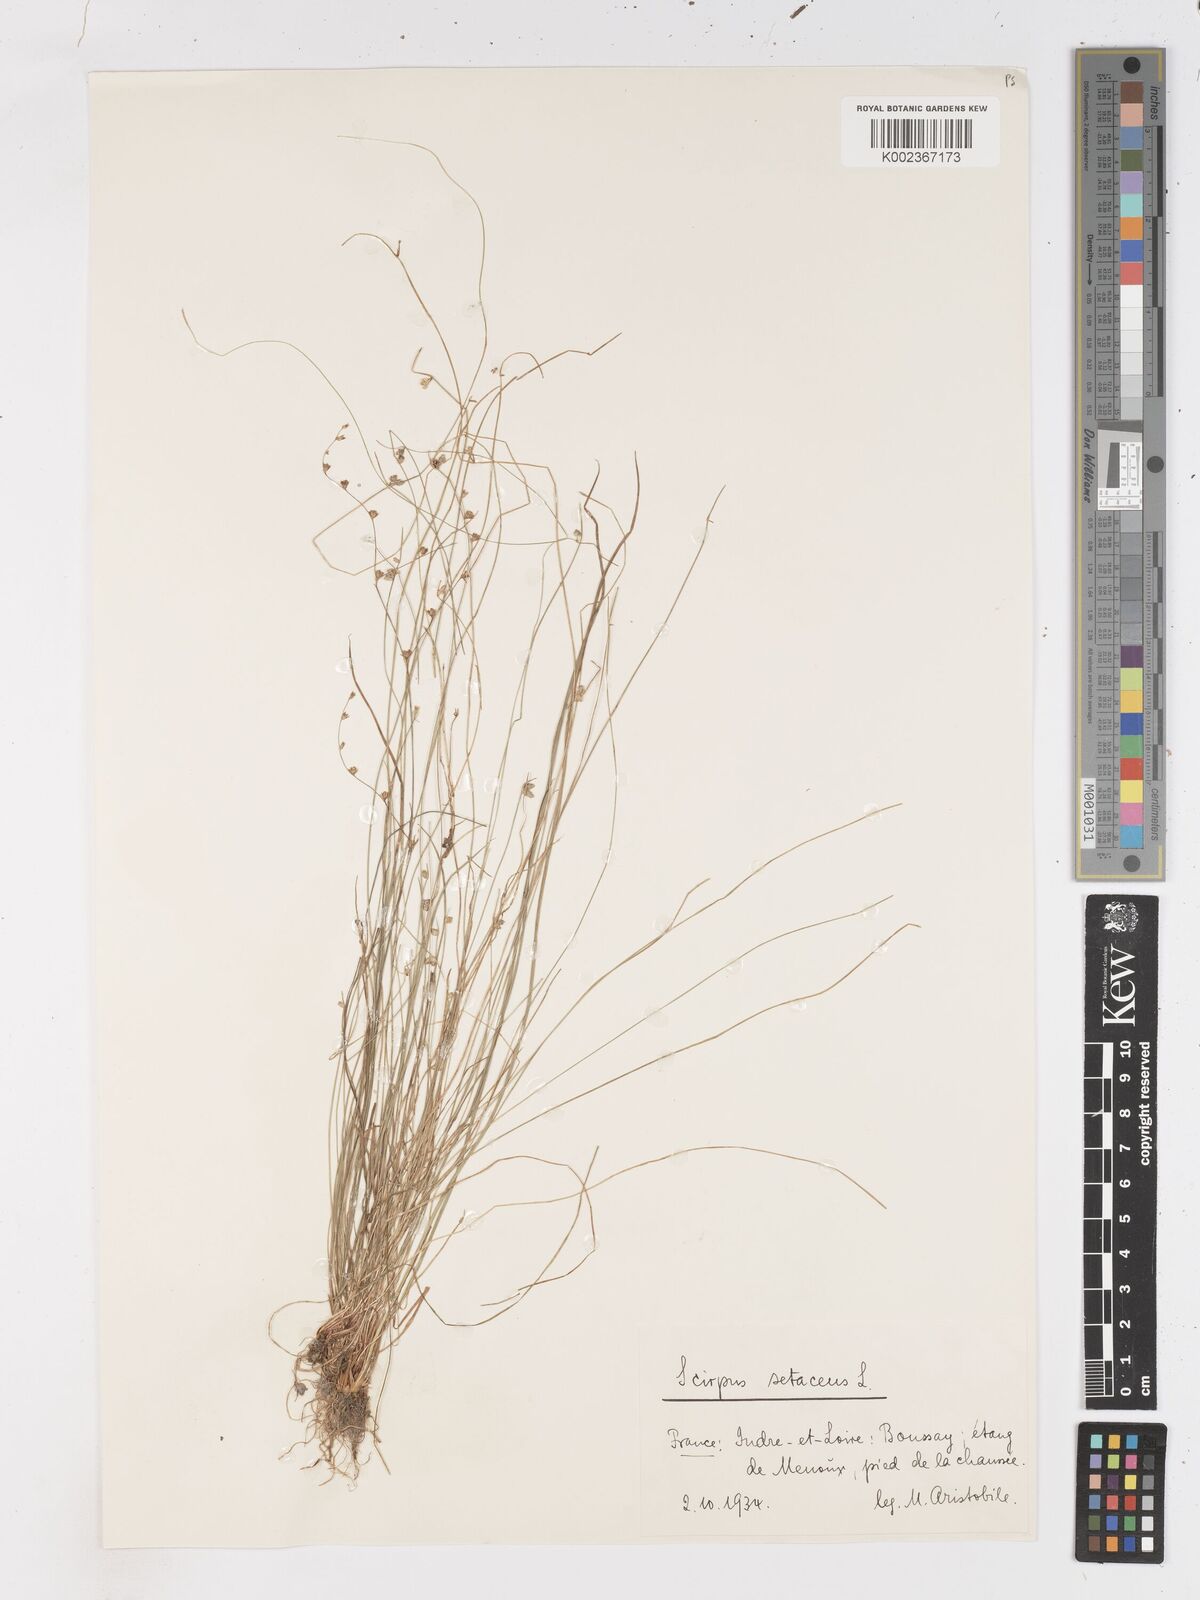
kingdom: Plantae
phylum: Tracheophyta
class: Liliopsida
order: Poales
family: Cyperaceae
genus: Isolepis
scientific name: Isolepis setacea
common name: Bristle club-rush
